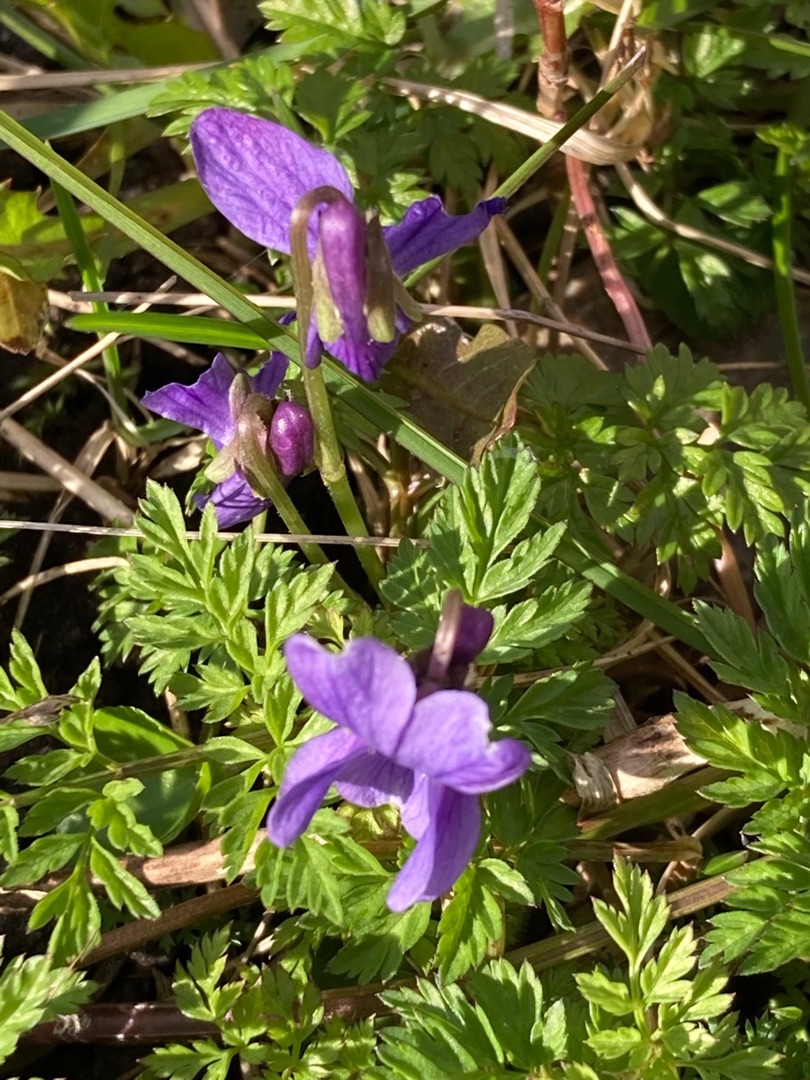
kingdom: Plantae
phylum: Tracheophyta
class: Magnoliopsida
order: Malpighiales
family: Violaceae
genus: Viola
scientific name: Viola odorata
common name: Marts-viol
